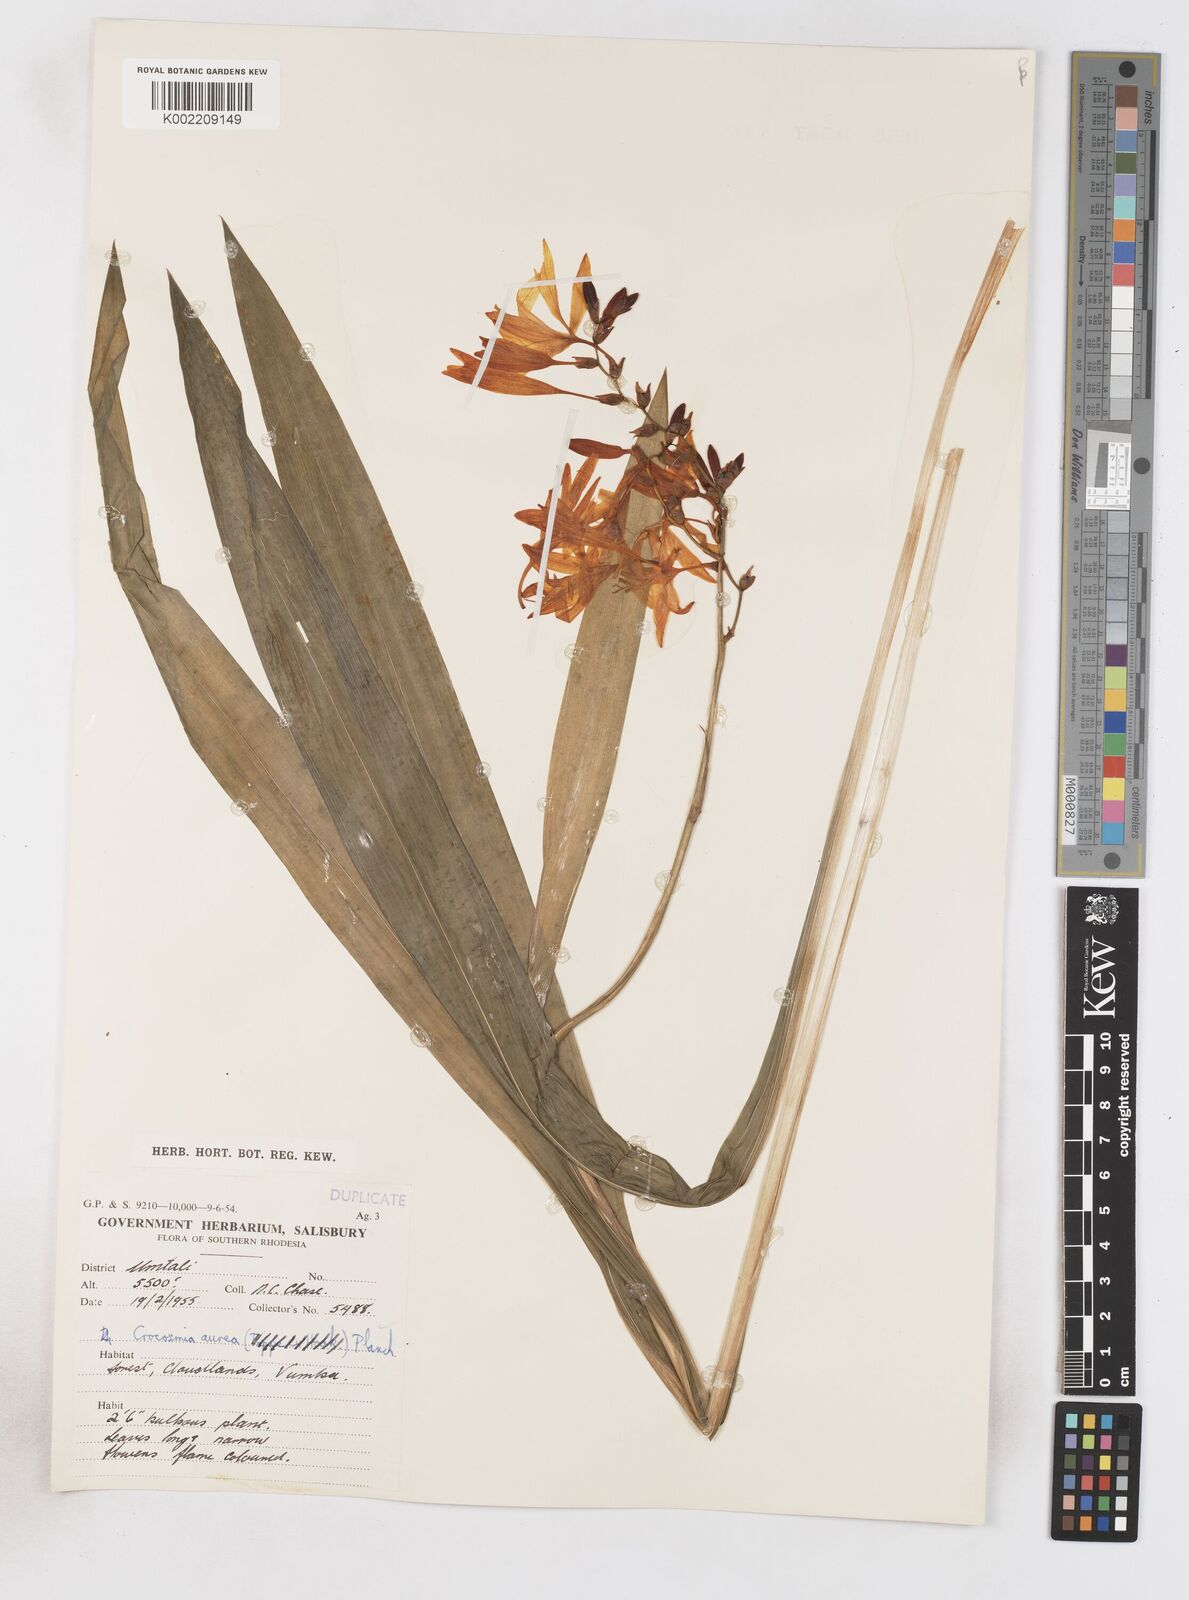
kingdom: Plantae
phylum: Tracheophyta
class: Liliopsida
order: Asparagales
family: Iridaceae
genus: Crocosmia
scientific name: Crocosmia aurea
